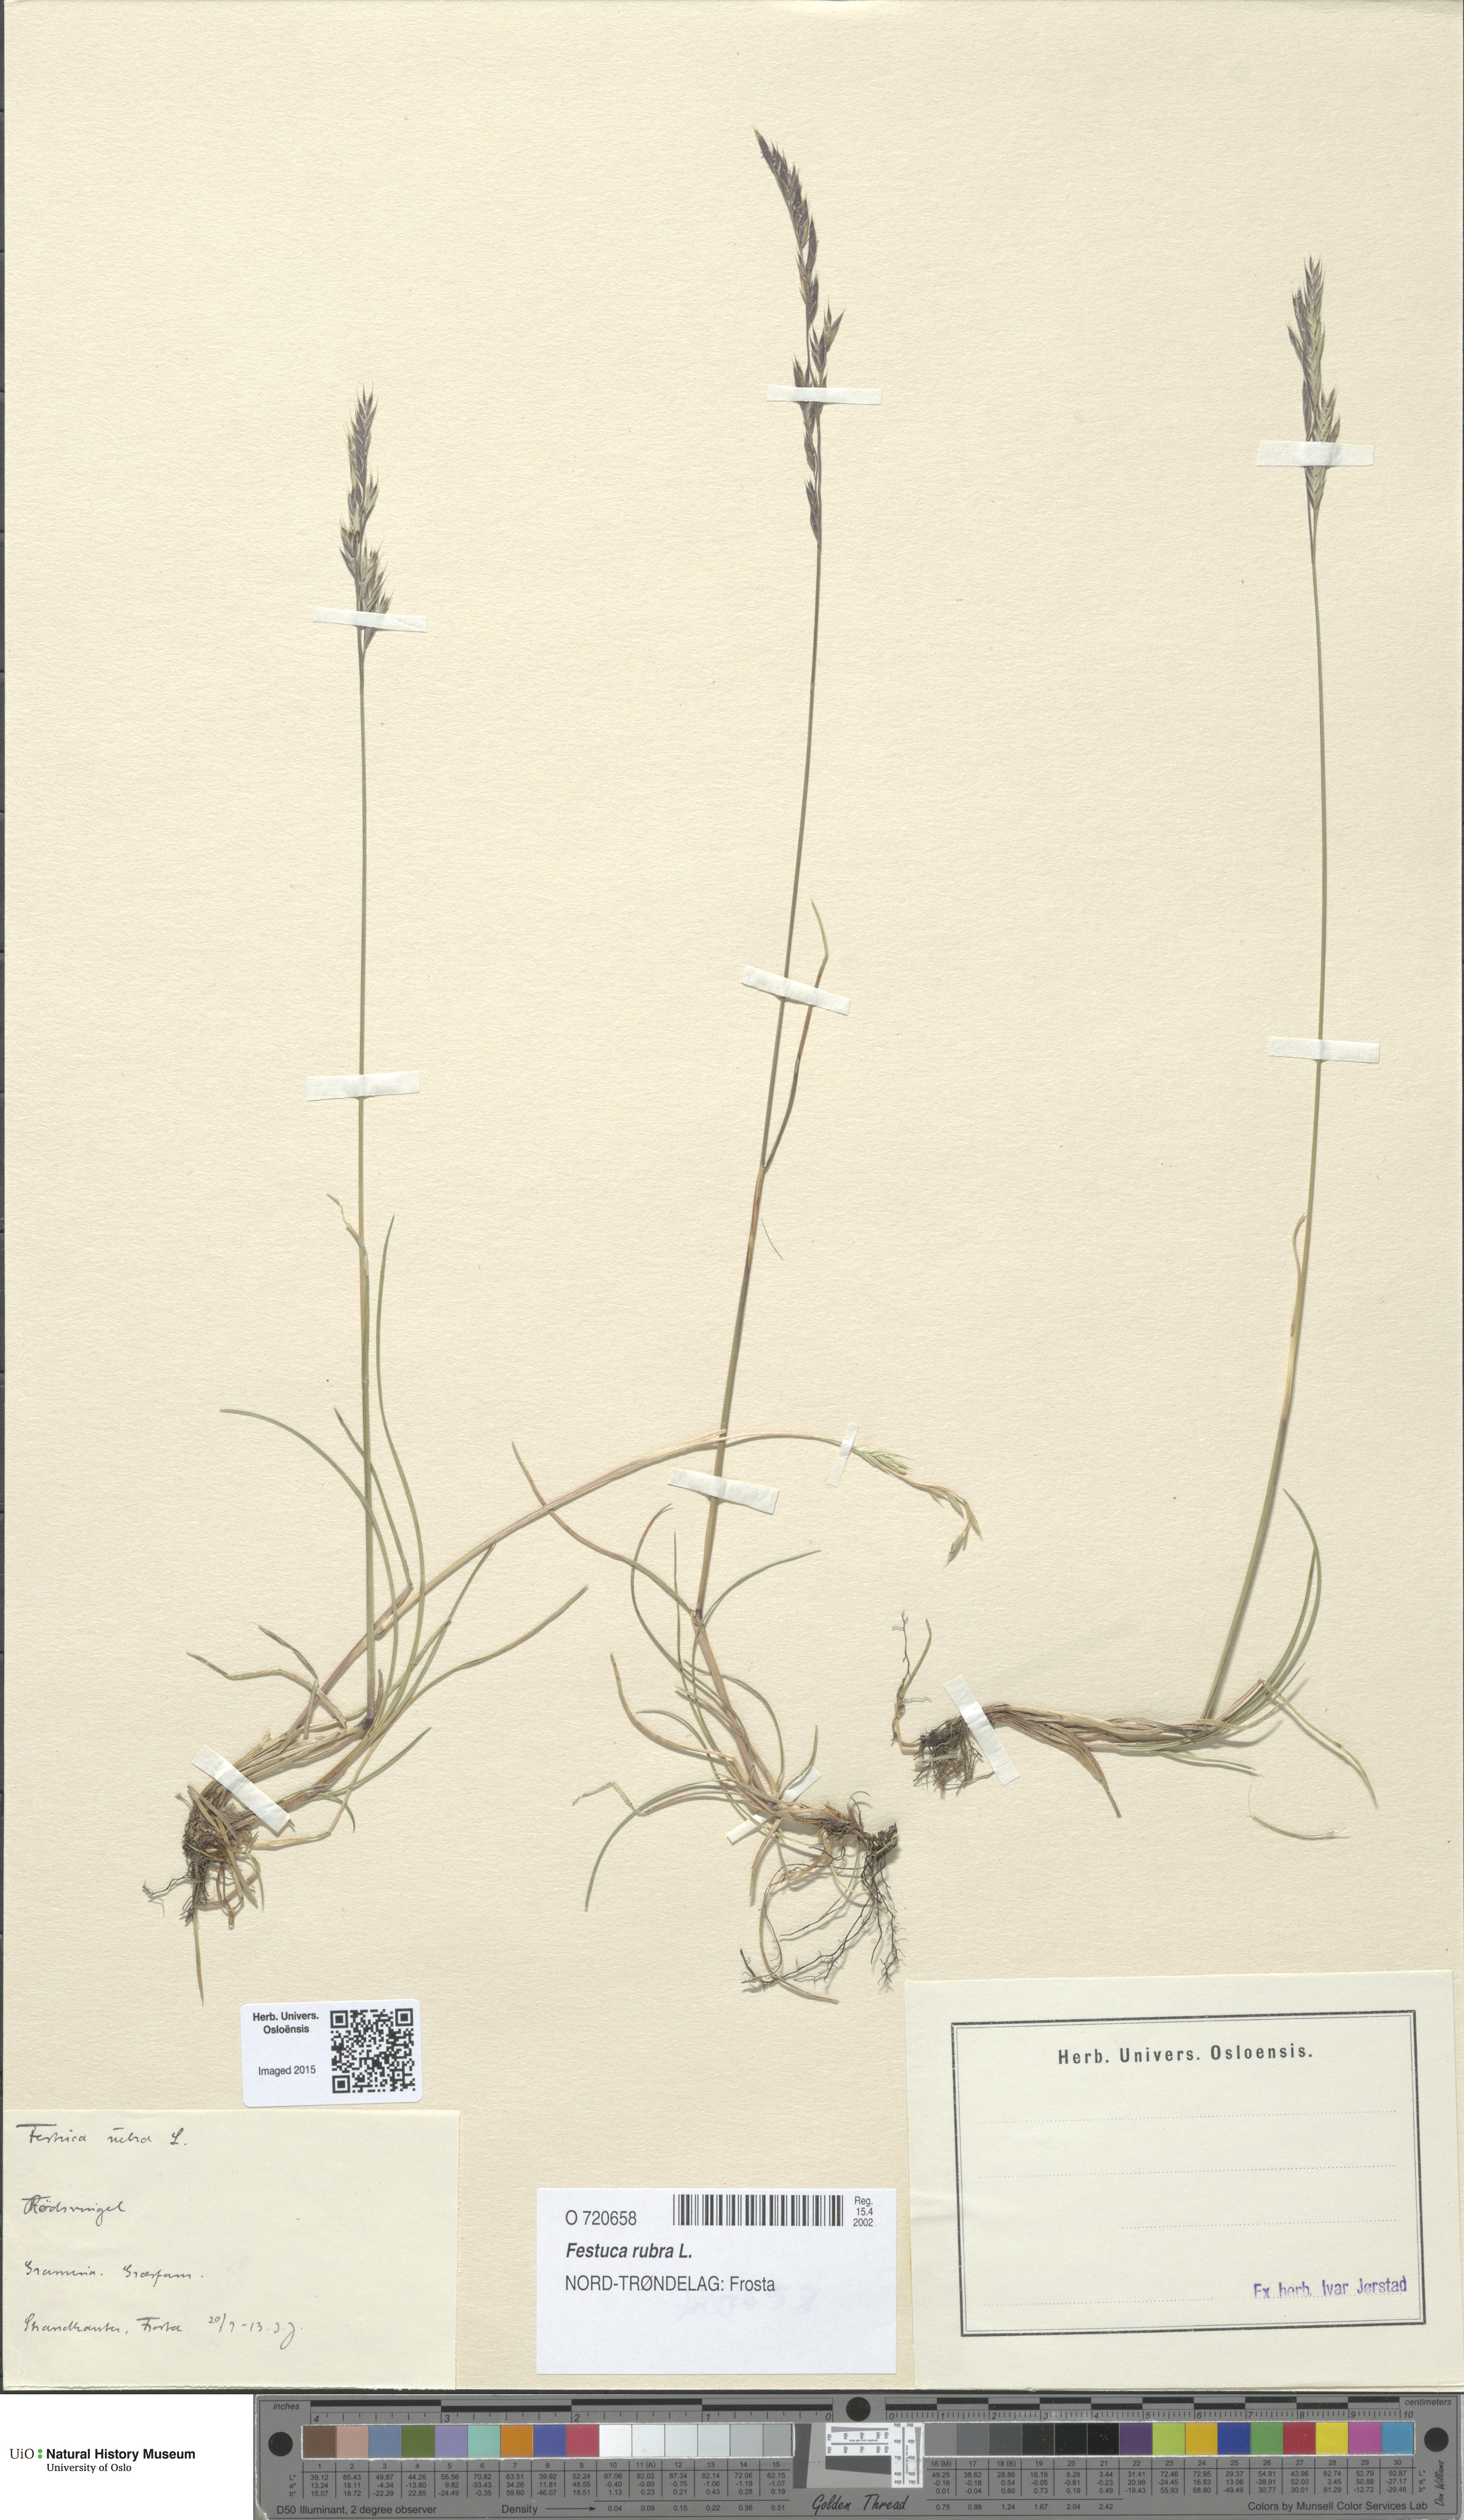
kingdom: Plantae
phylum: Tracheophyta
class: Liliopsida
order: Poales
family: Poaceae
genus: Festuca
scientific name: Festuca rubra
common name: Red fescue
